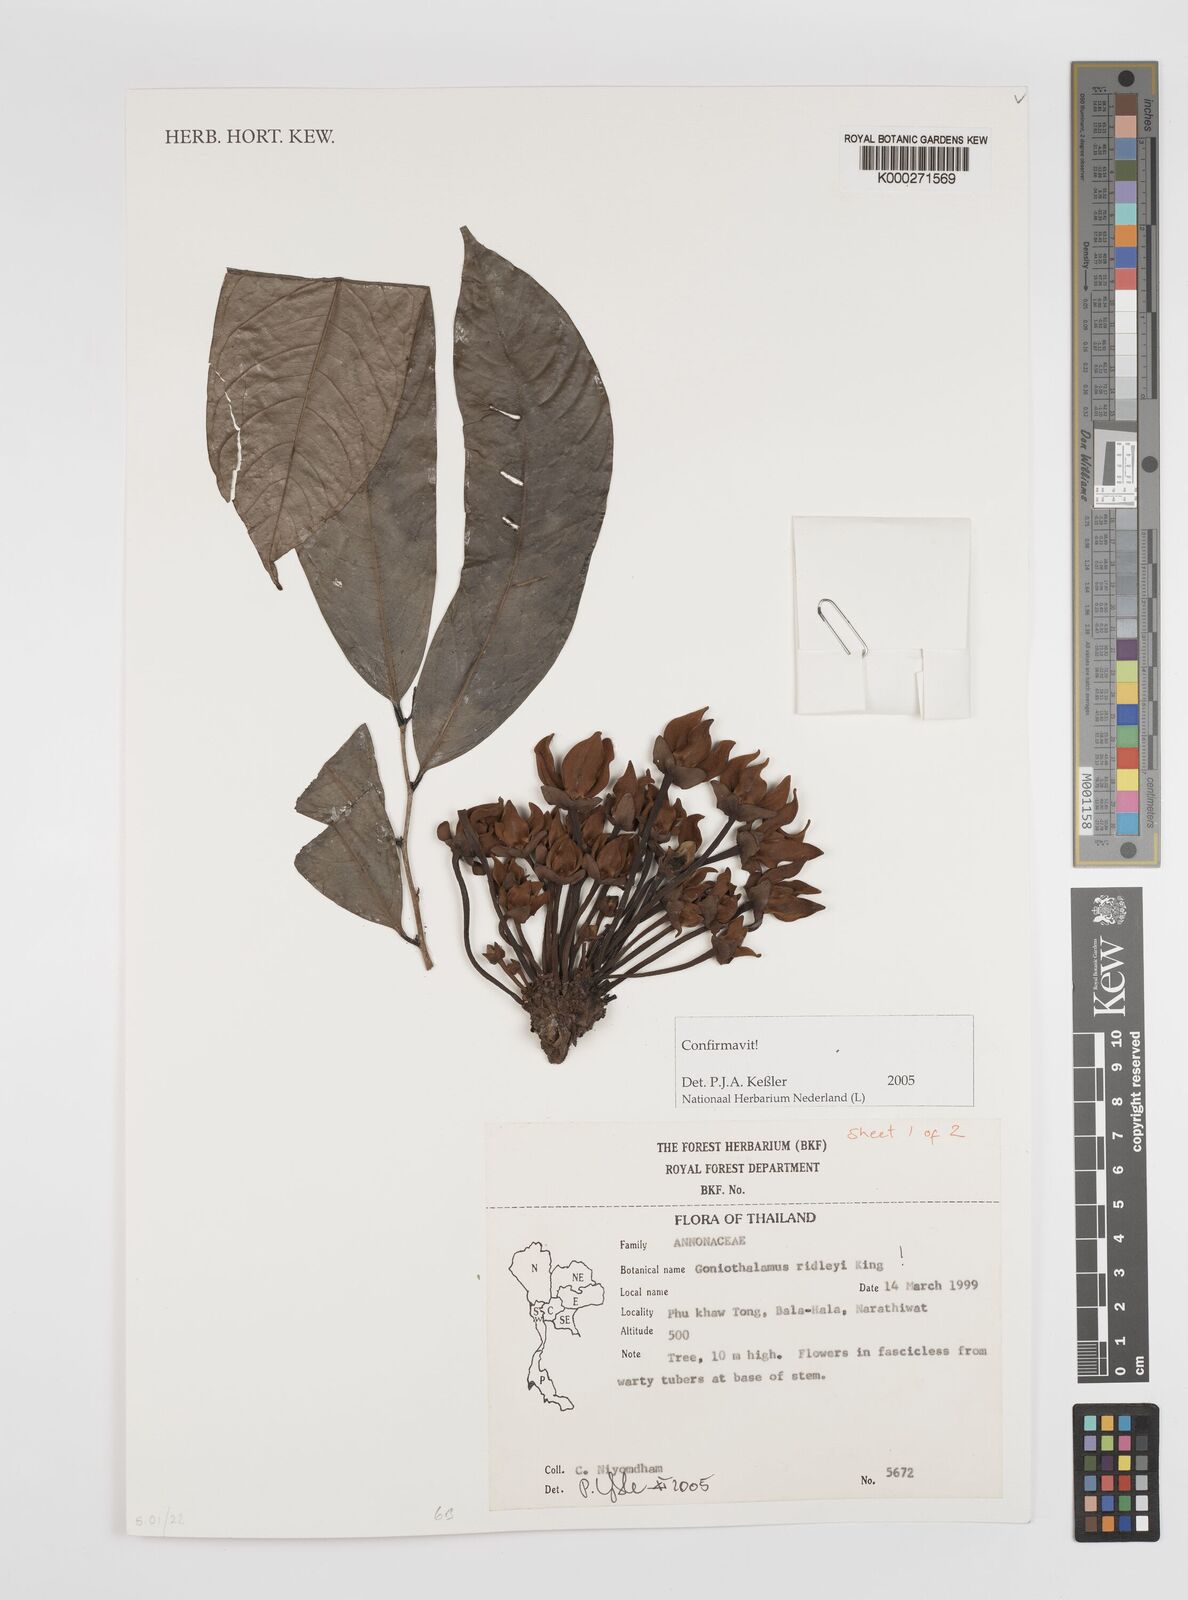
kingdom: Plantae
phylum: Tracheophyta
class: Magnoliopsida
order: Magnoliales
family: Annonaceae
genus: Goniothalamus
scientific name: Goniothalamus ridleyi
